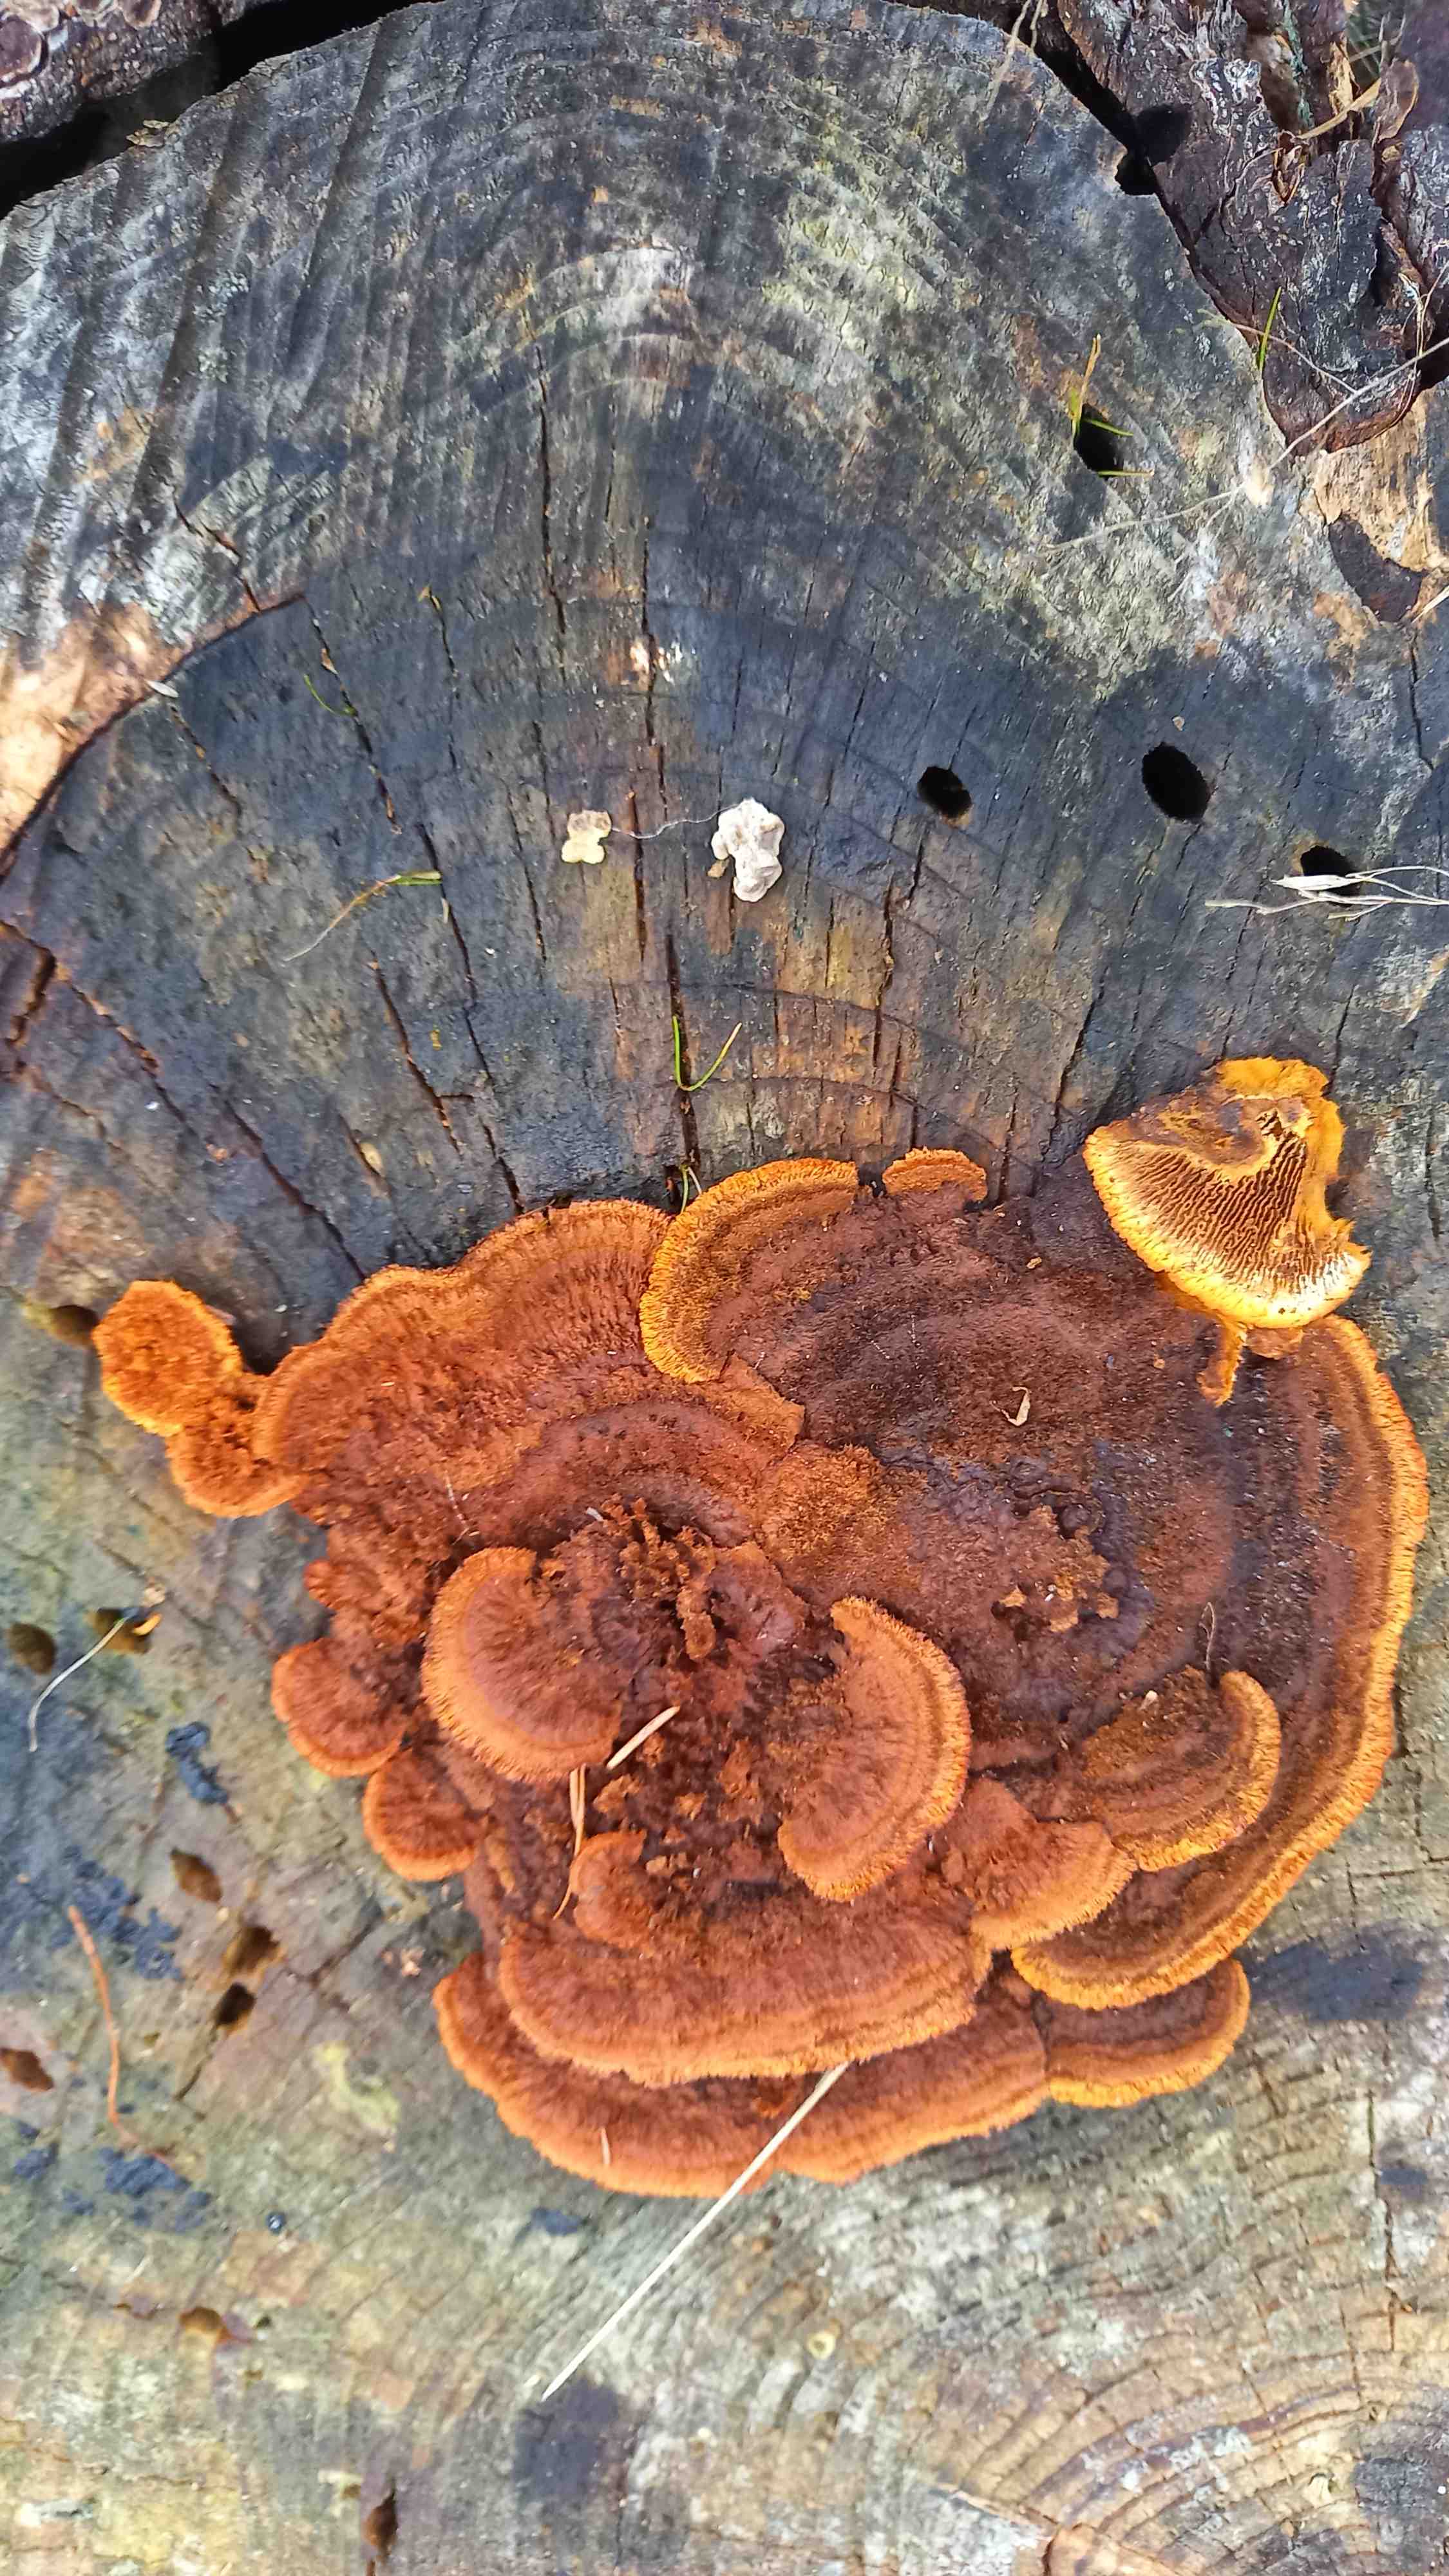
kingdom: Fungi
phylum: Basidiomycota
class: Agaricomycetes
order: Gloeophyllales
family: Gloeophyllaceae
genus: Gloeophyllum
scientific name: Gloeophyllum sepiarium
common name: fyrre-korkhat
